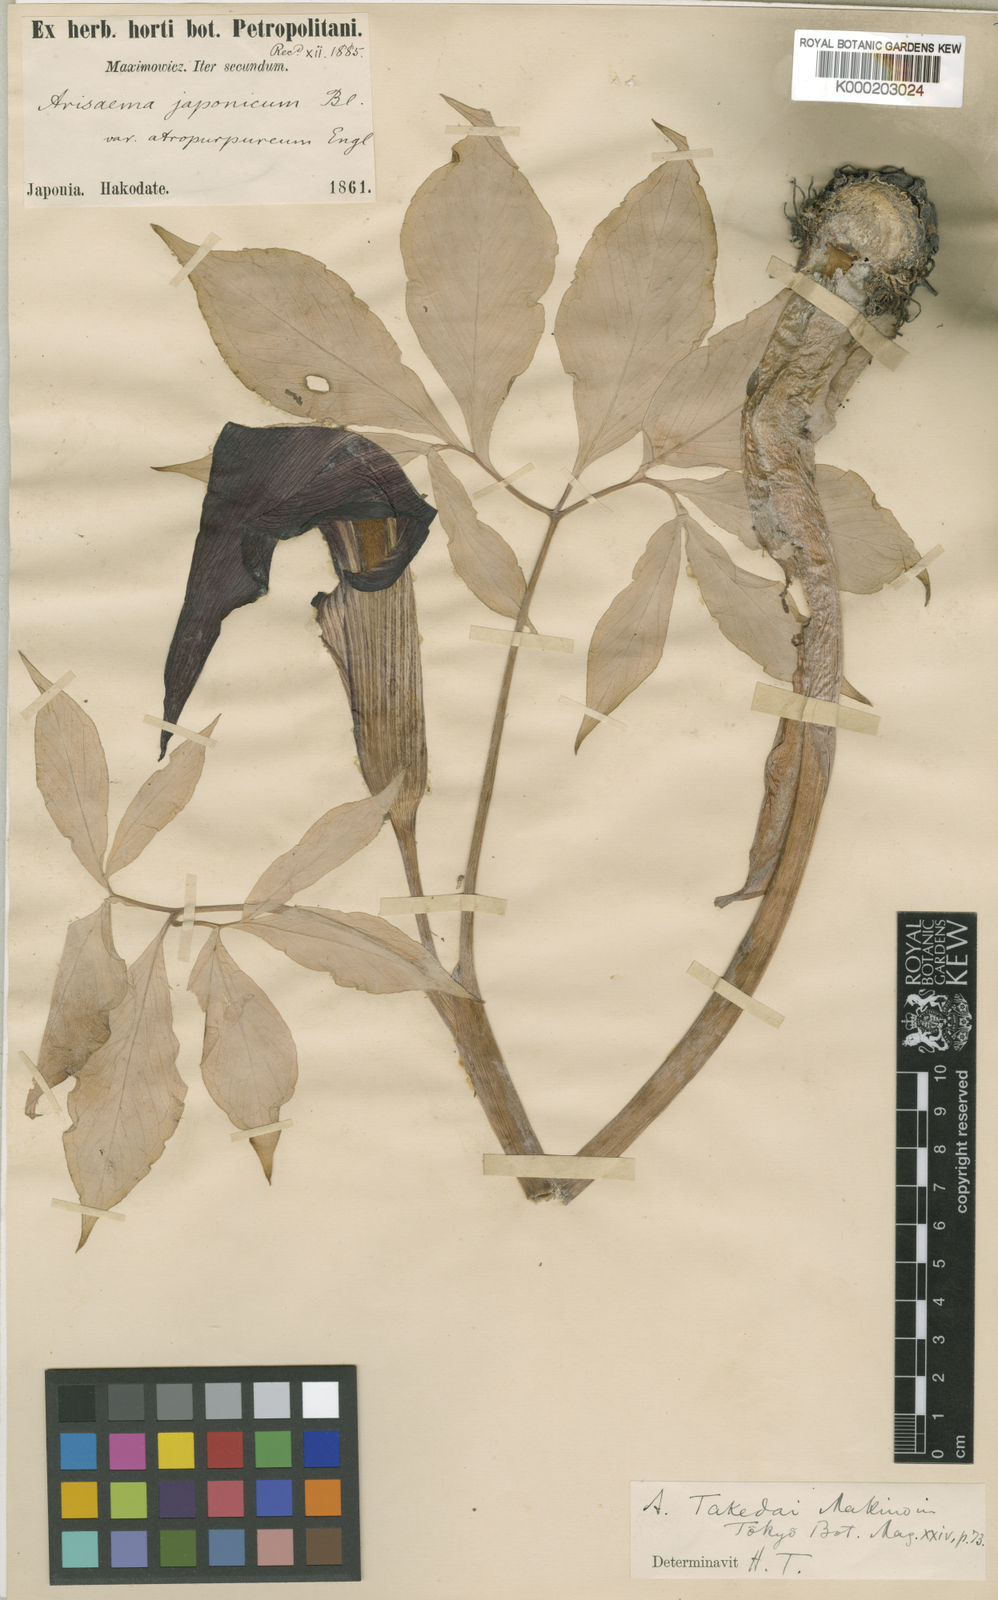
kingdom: Plantae
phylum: Tracheophyta
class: Liliopsida
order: Alismatales
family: Araceae
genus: Arisaema
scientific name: Arisaema
